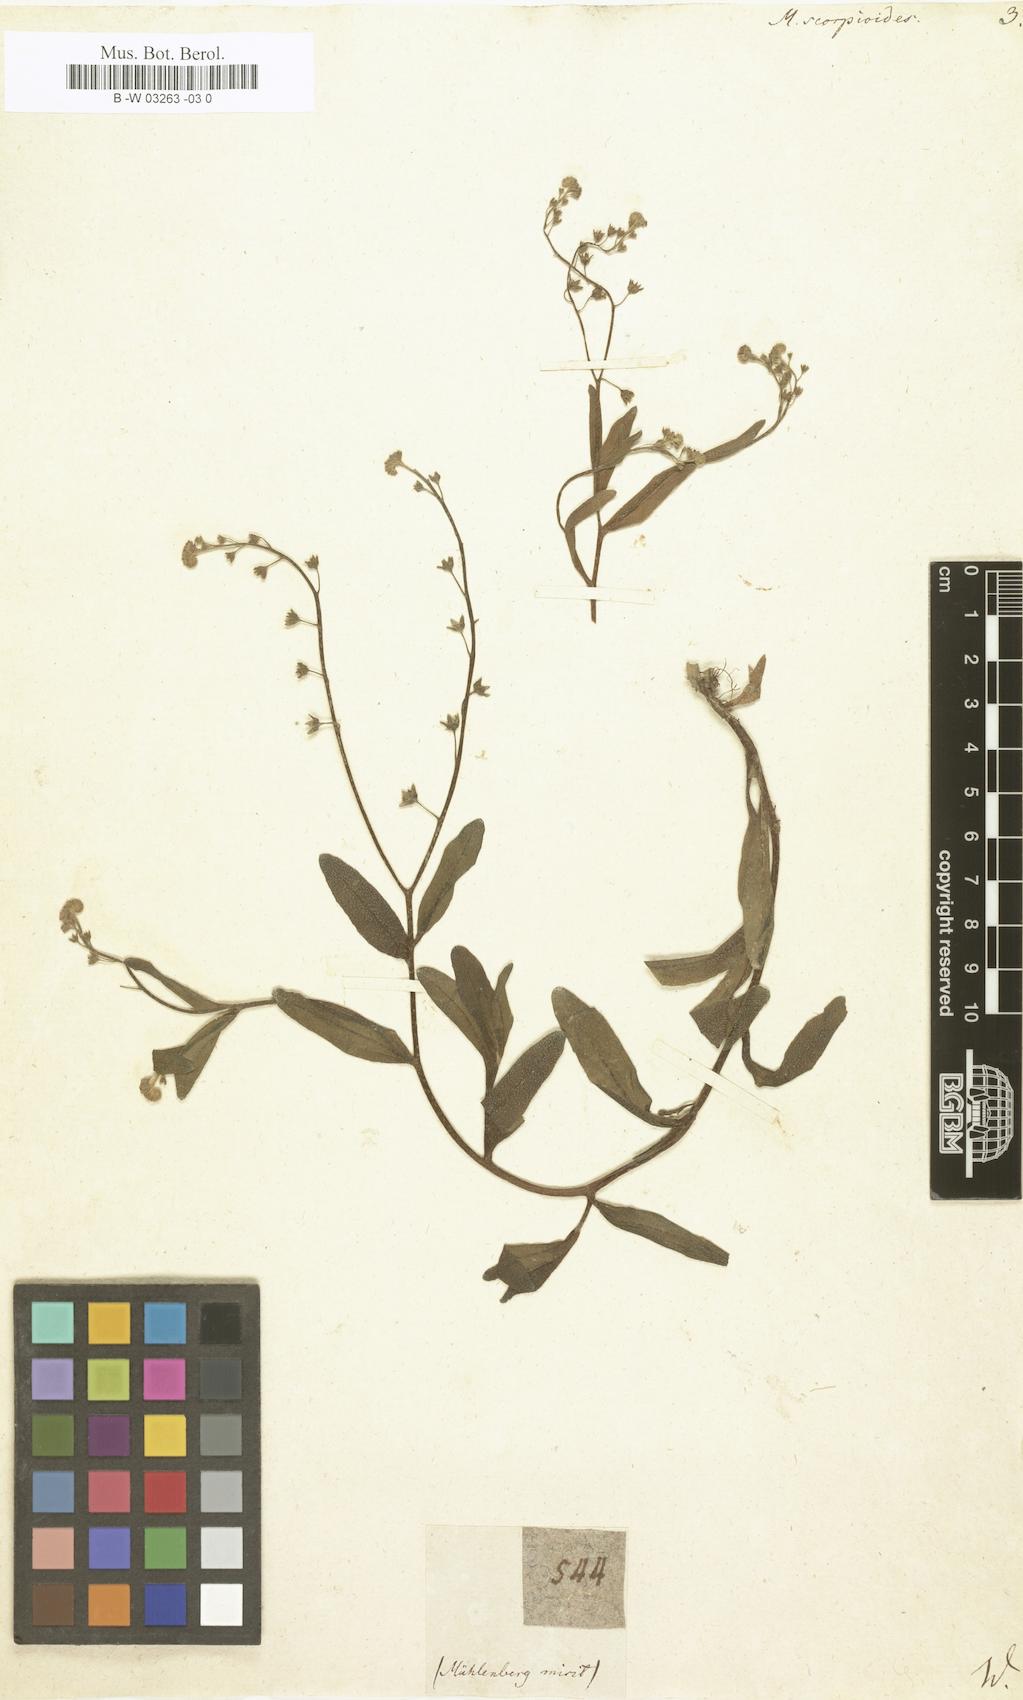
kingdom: Plantae
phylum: Tracheophyta
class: Magnoliopsida
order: Boraginales
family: Boraginaceae
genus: Myosotis
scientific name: Myosotis scorpioides
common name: Water forget-me-not
